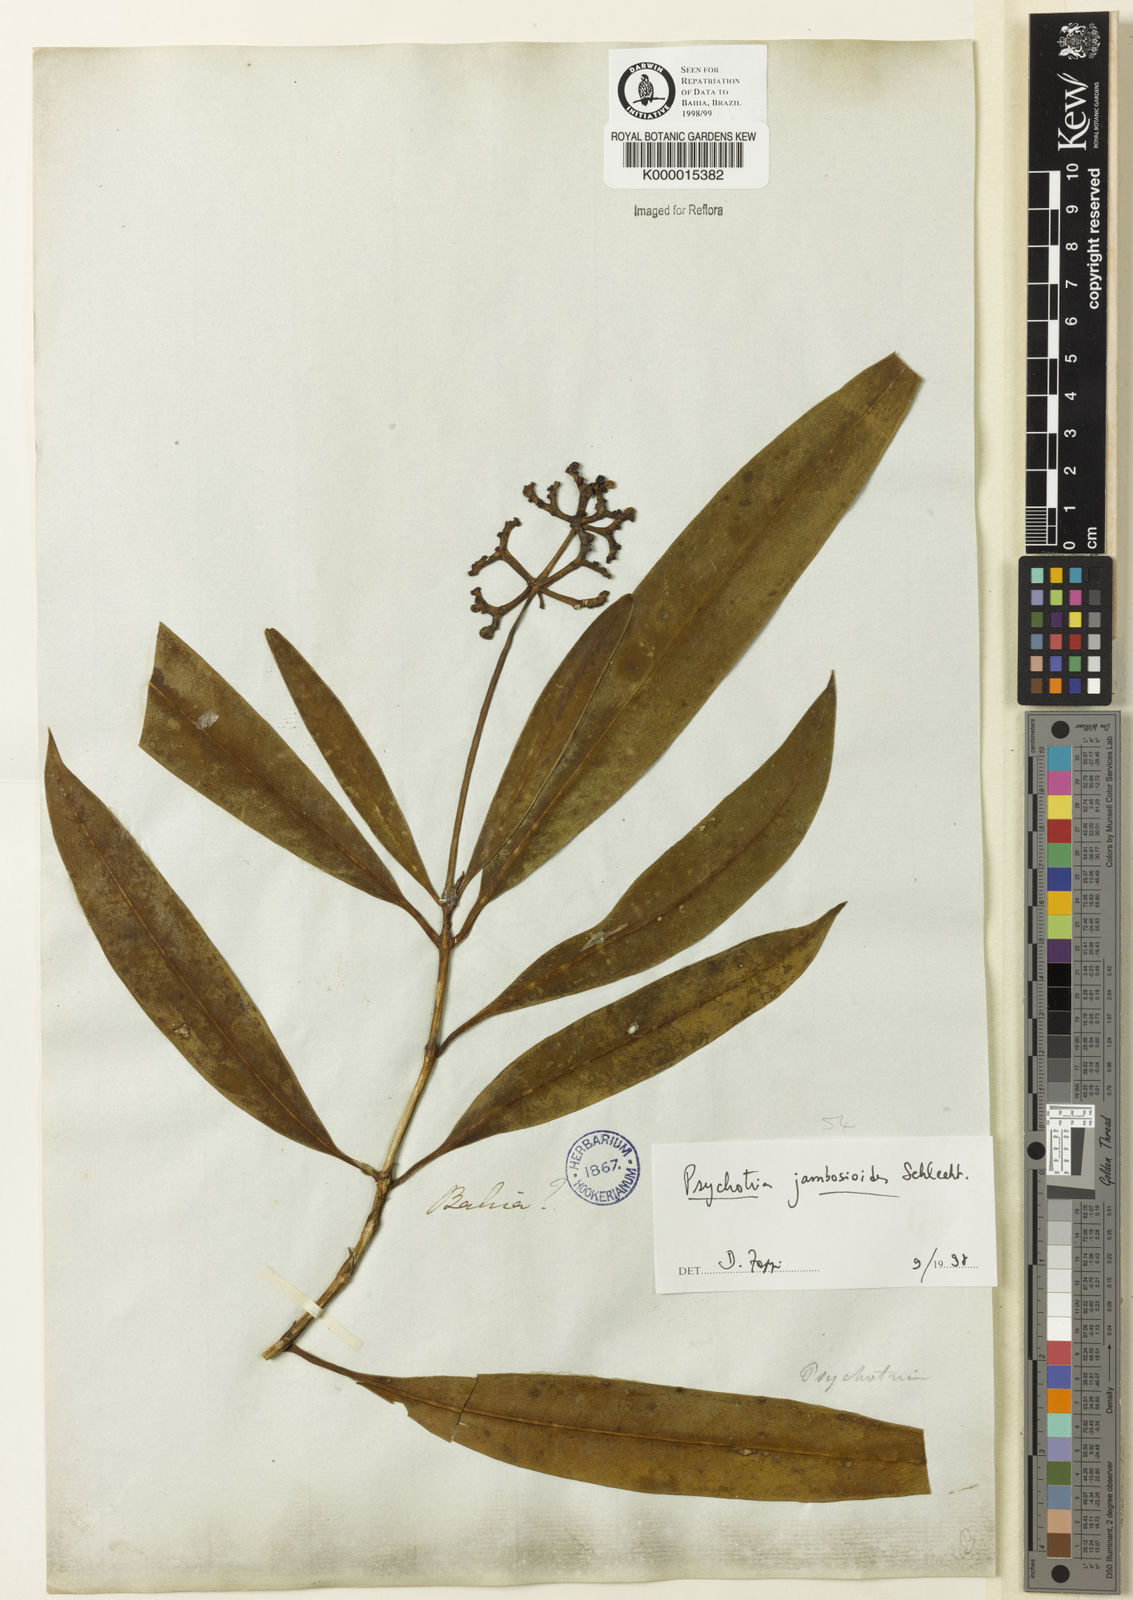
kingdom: Plantae
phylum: Tracheophyta
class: Magnoliopsida
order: Gentianales
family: Rubiaceae
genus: Palicourea
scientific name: Palicourea jambosioides
